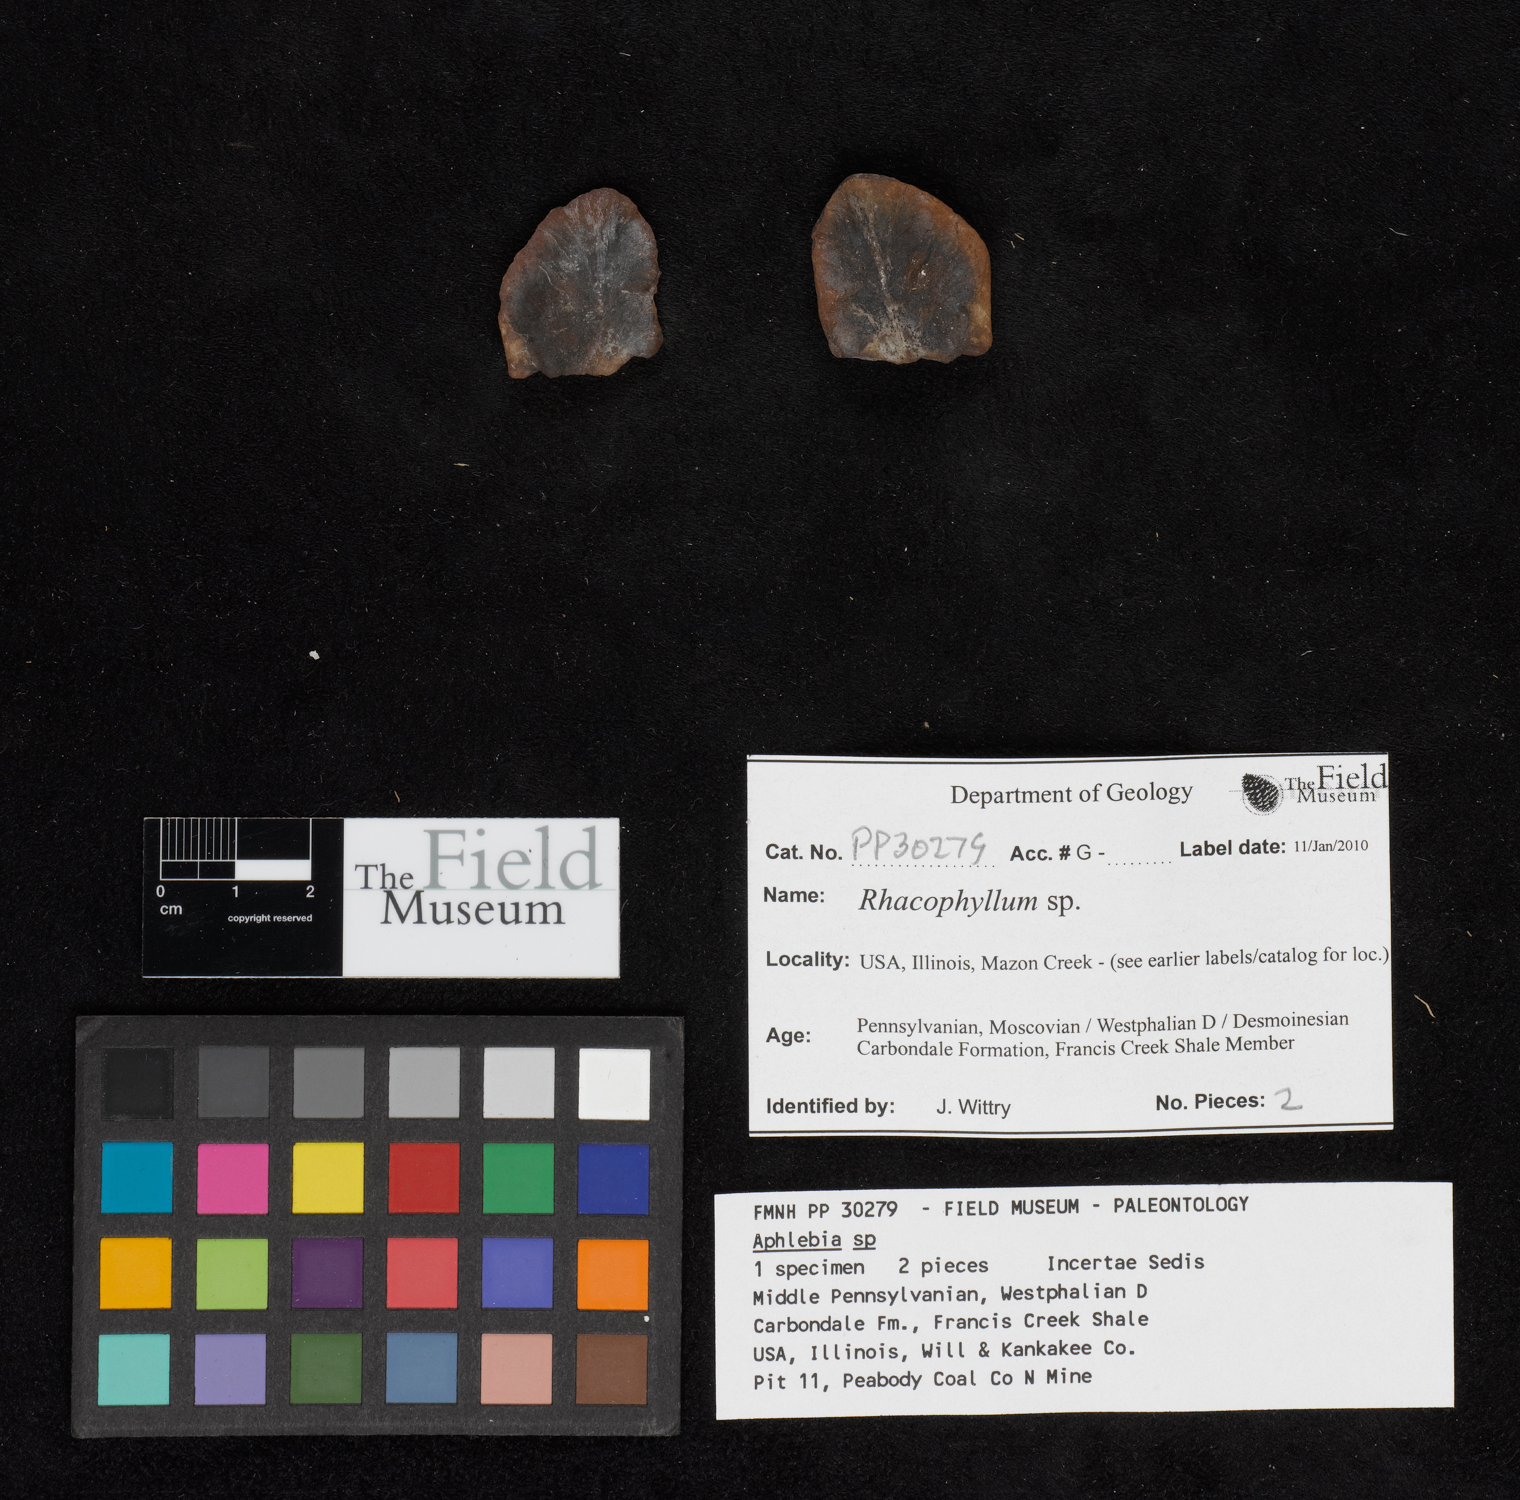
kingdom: Plantae
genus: Rhacophyllum
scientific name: Rhacophyllum
